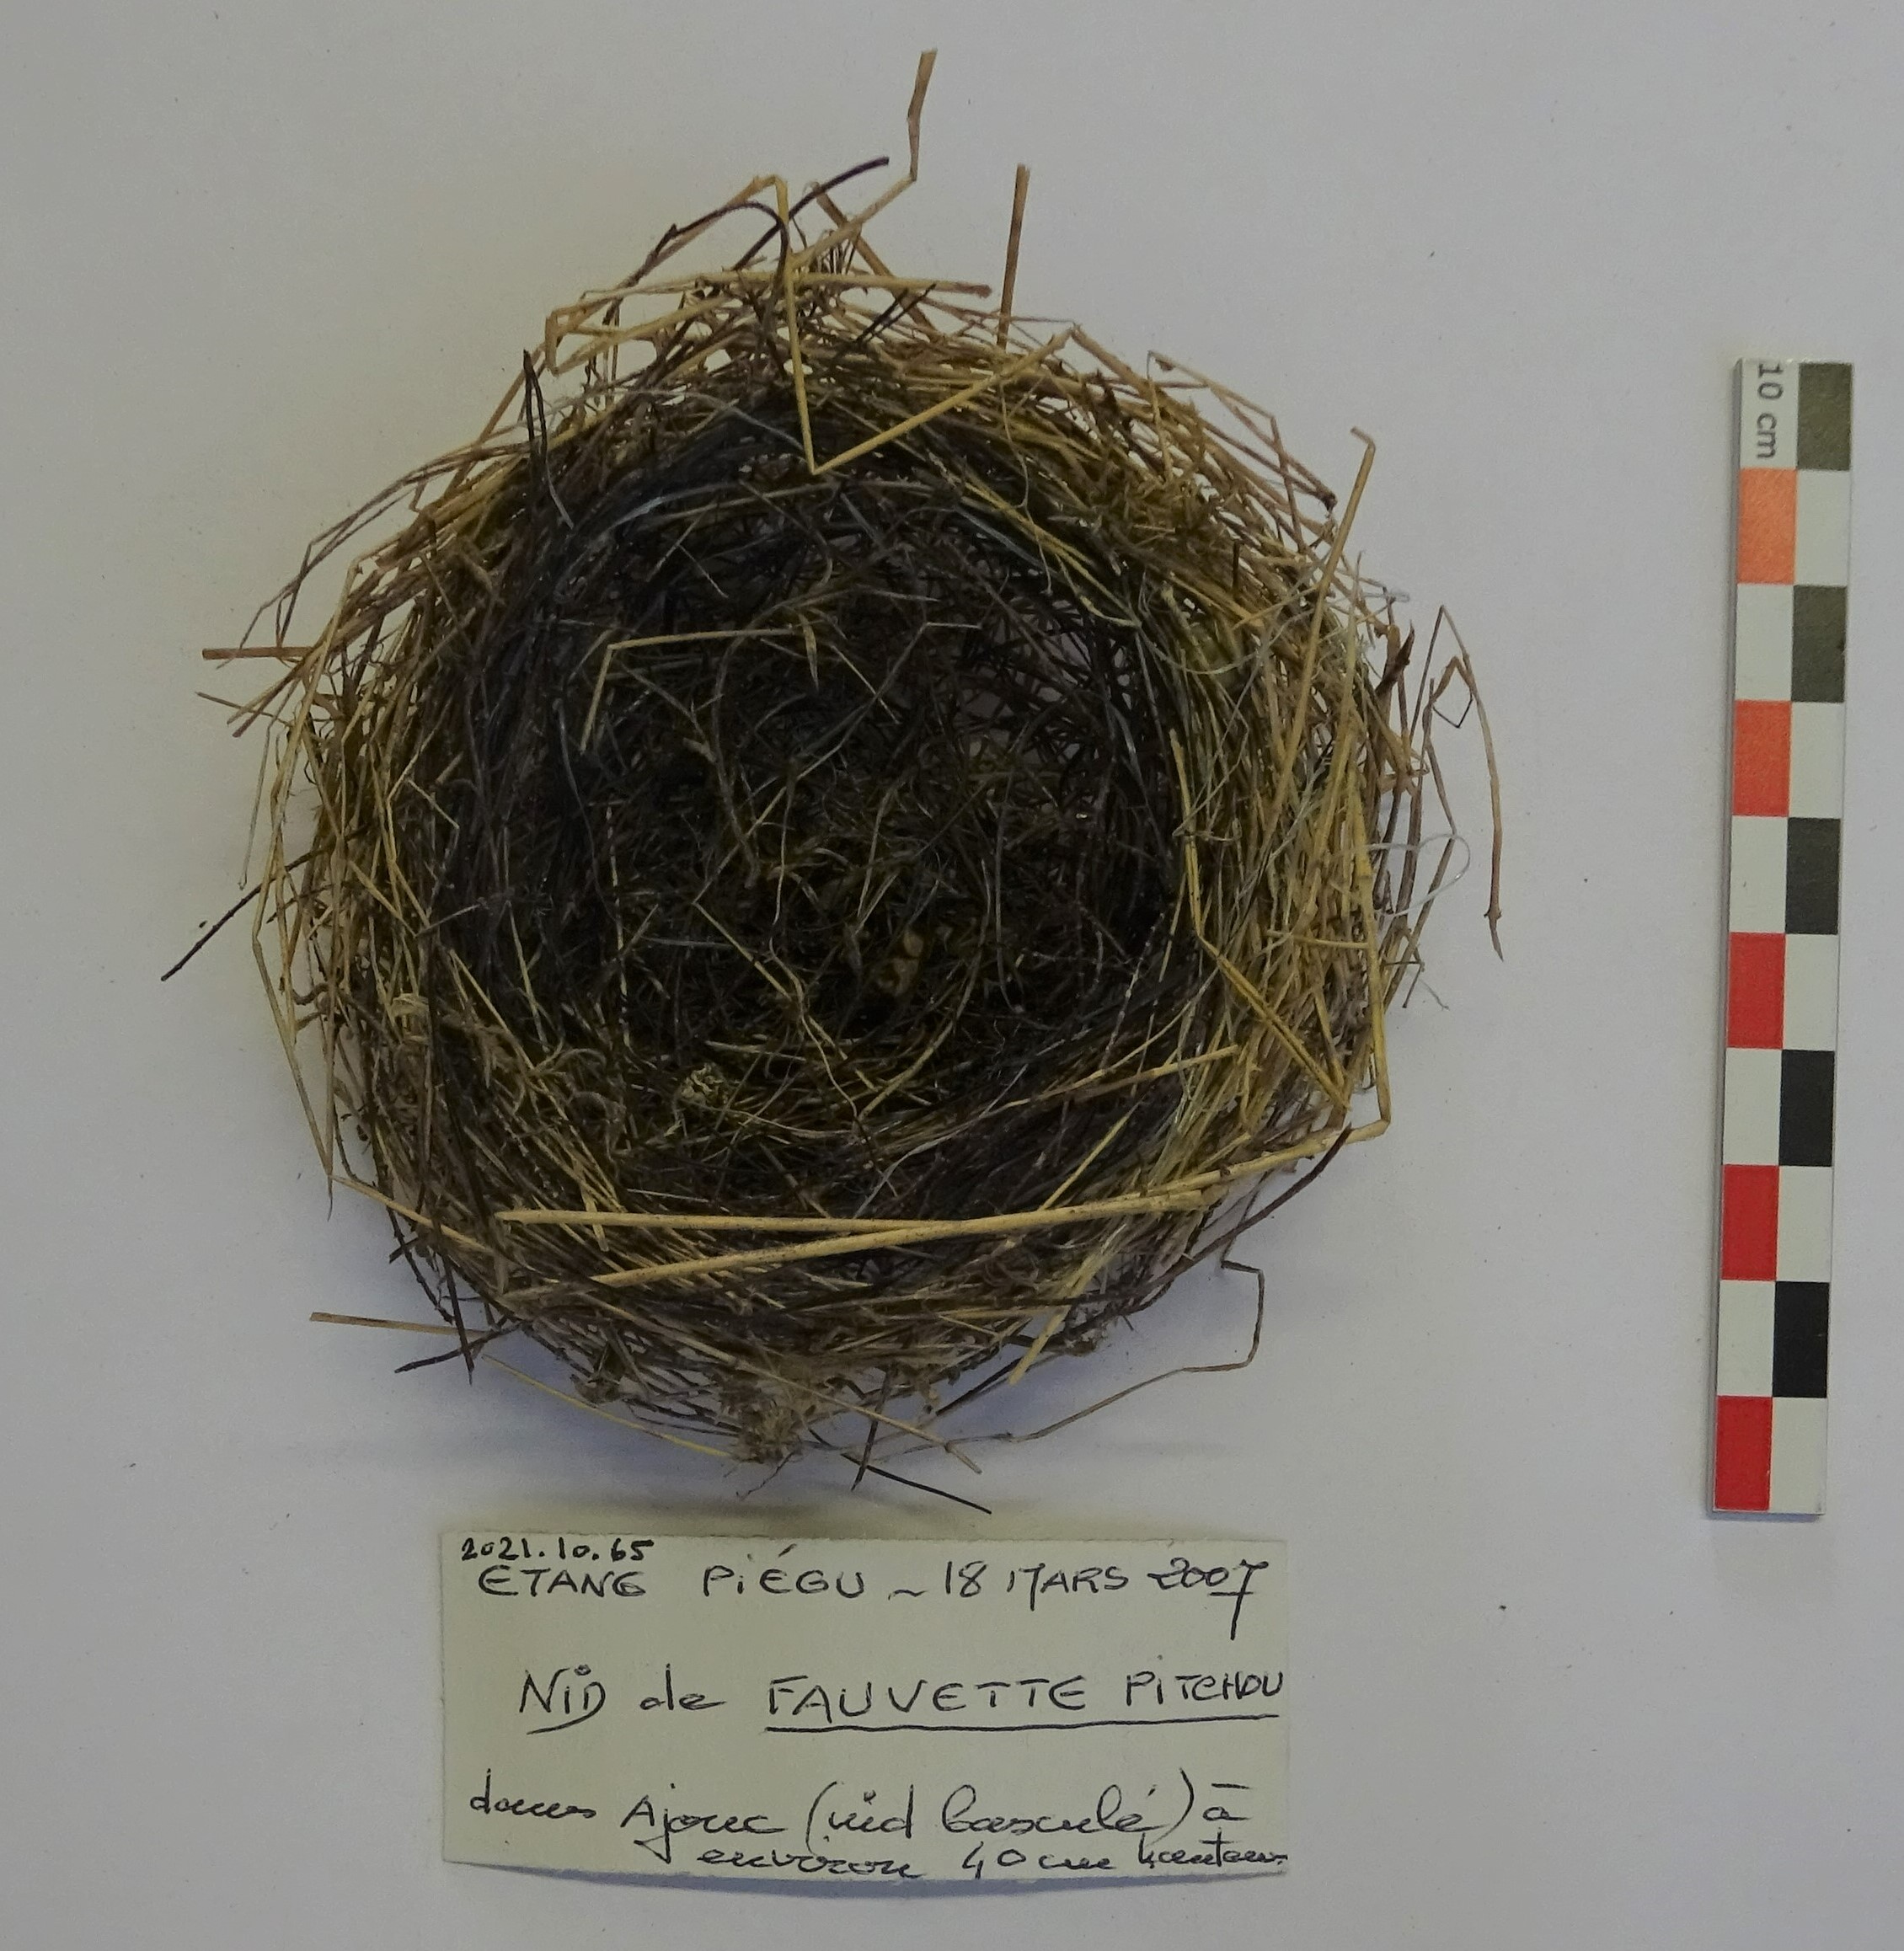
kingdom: Animalia
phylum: Chordata
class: Aves
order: Passeriformes
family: Sylviidae
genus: Sylvia
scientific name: Sylvia undata
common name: Dartford warbler
